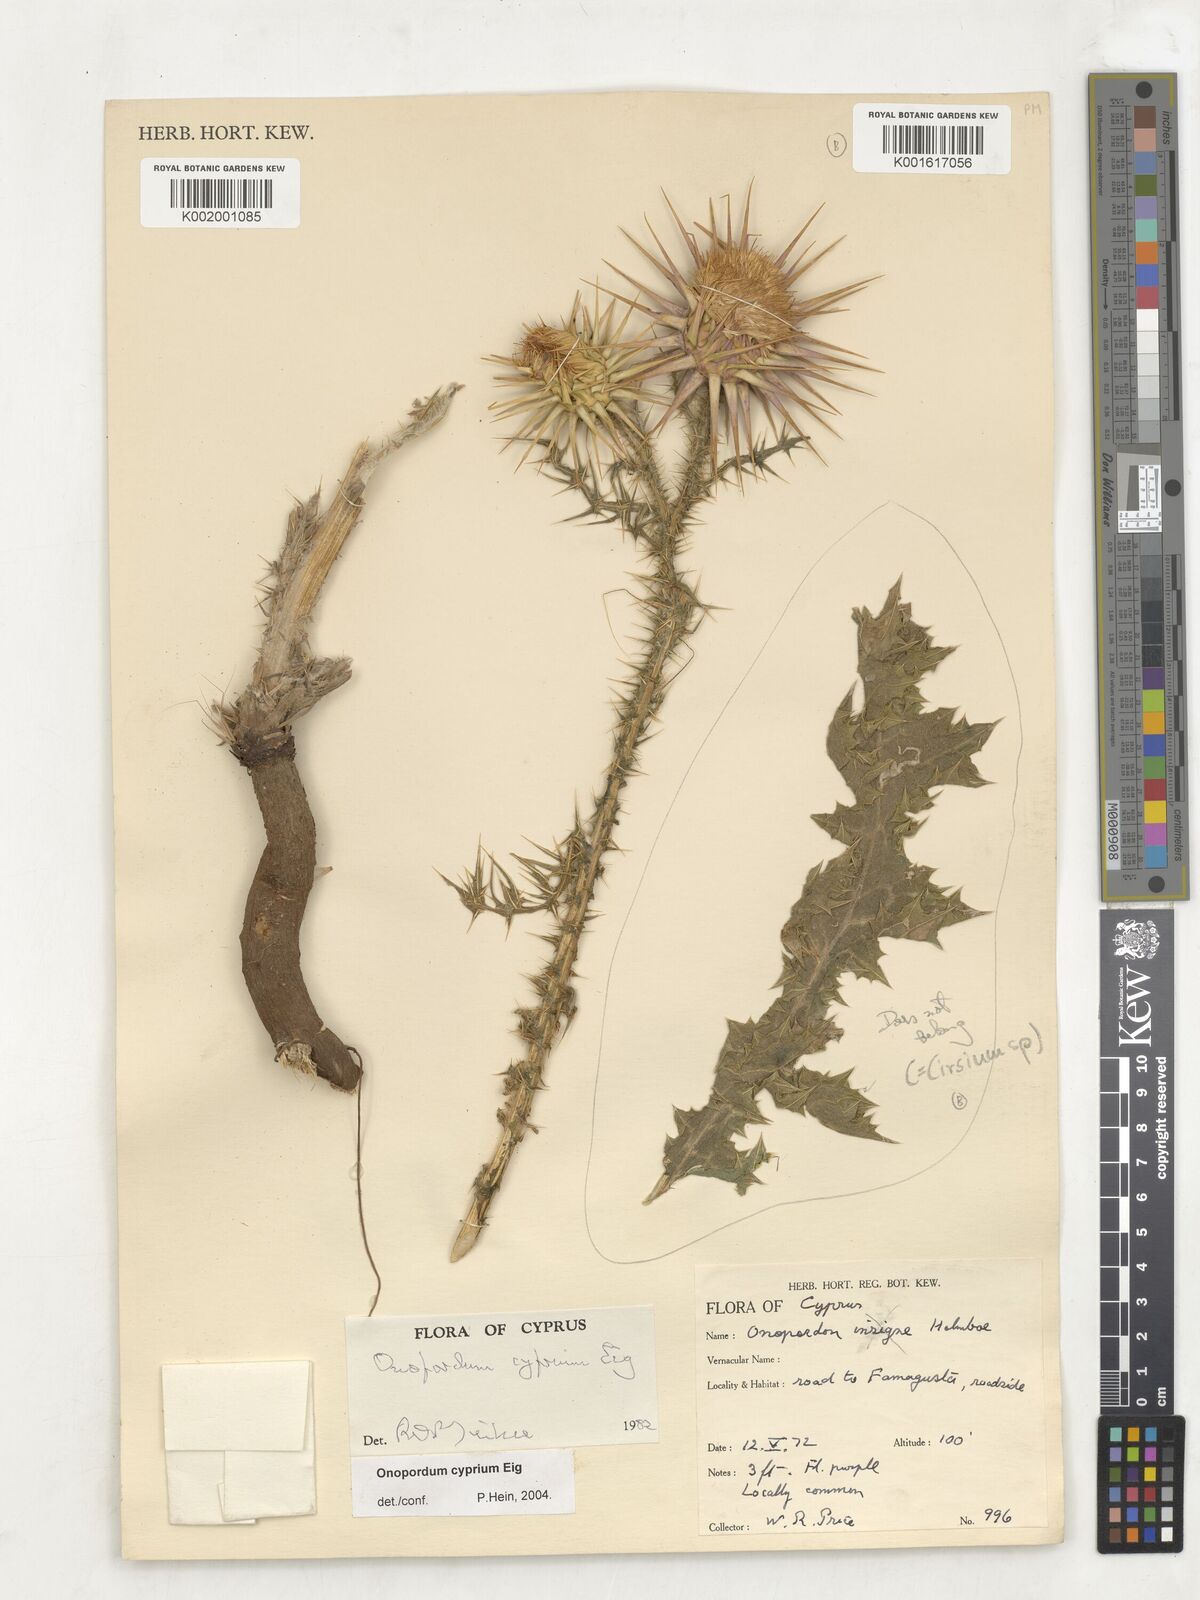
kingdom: Plantae
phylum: Tracheophyta
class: Magnoliopsida
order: Asterales
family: Asteraceae
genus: Cirsium
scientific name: Cirsium
